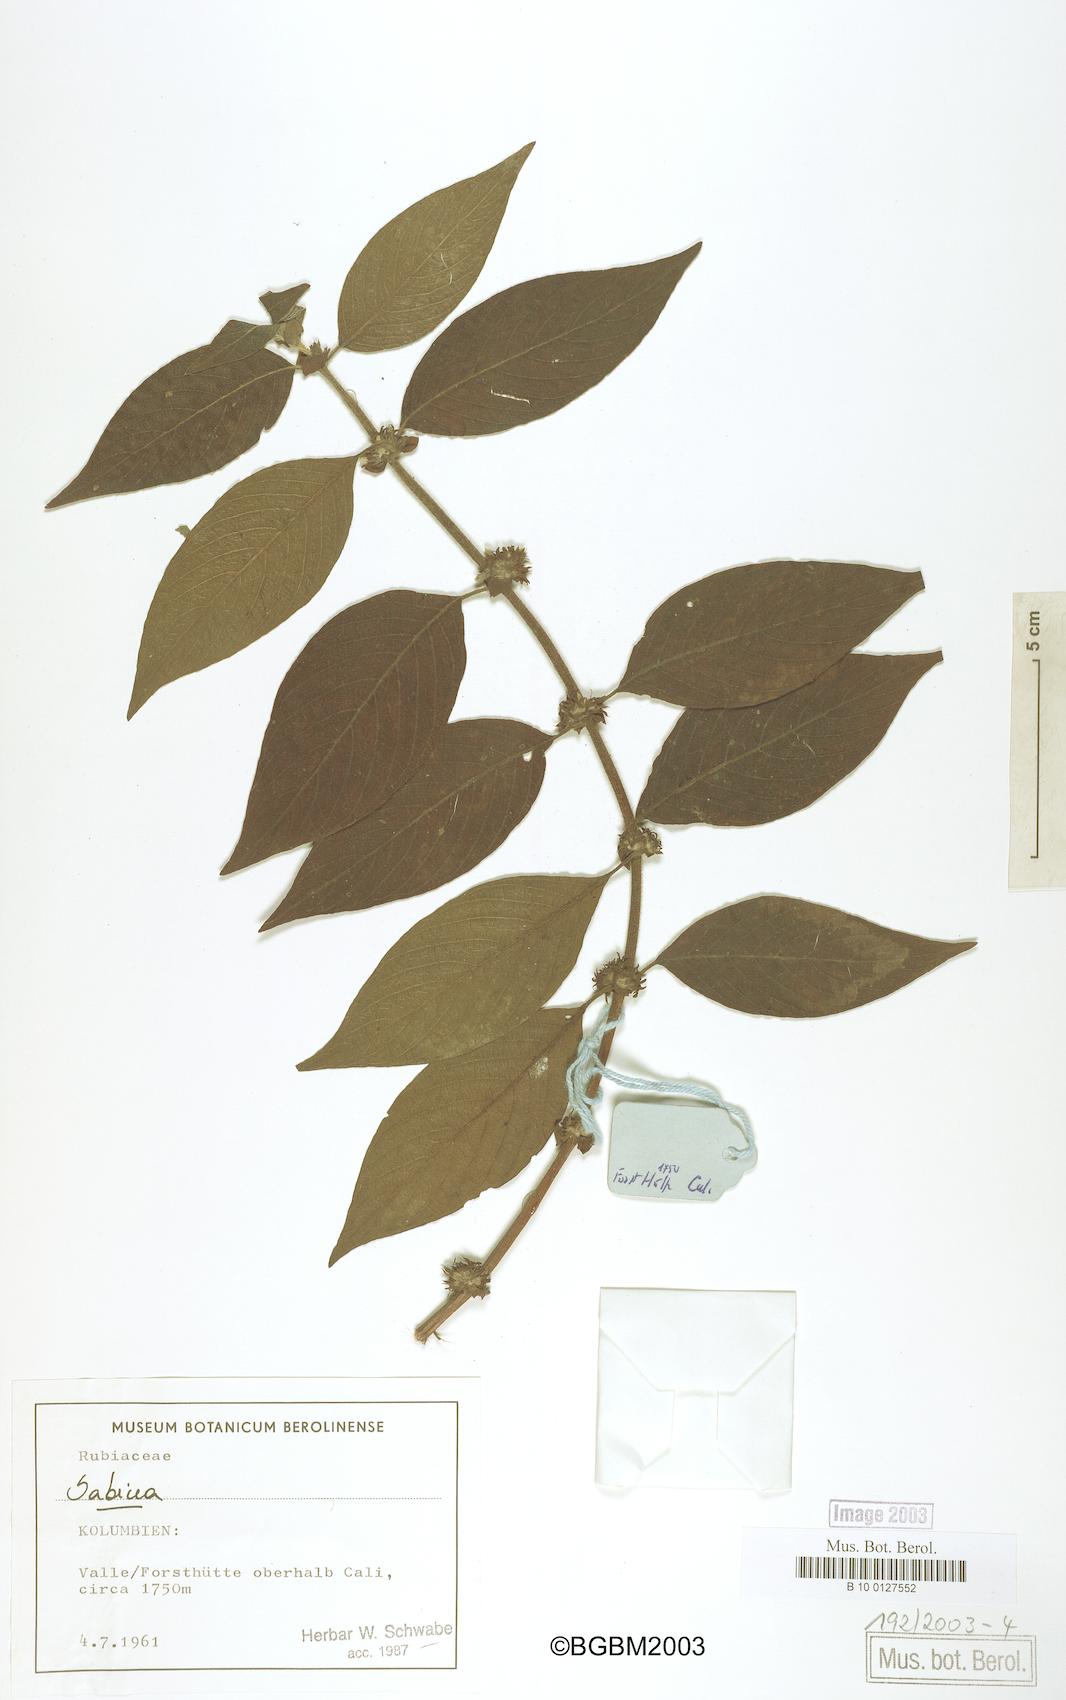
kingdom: Plantae
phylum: Tracheophyta
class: Magnoliopsida
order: Gentianales
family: Rubiaceae
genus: Sabicea
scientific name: Sabicea
